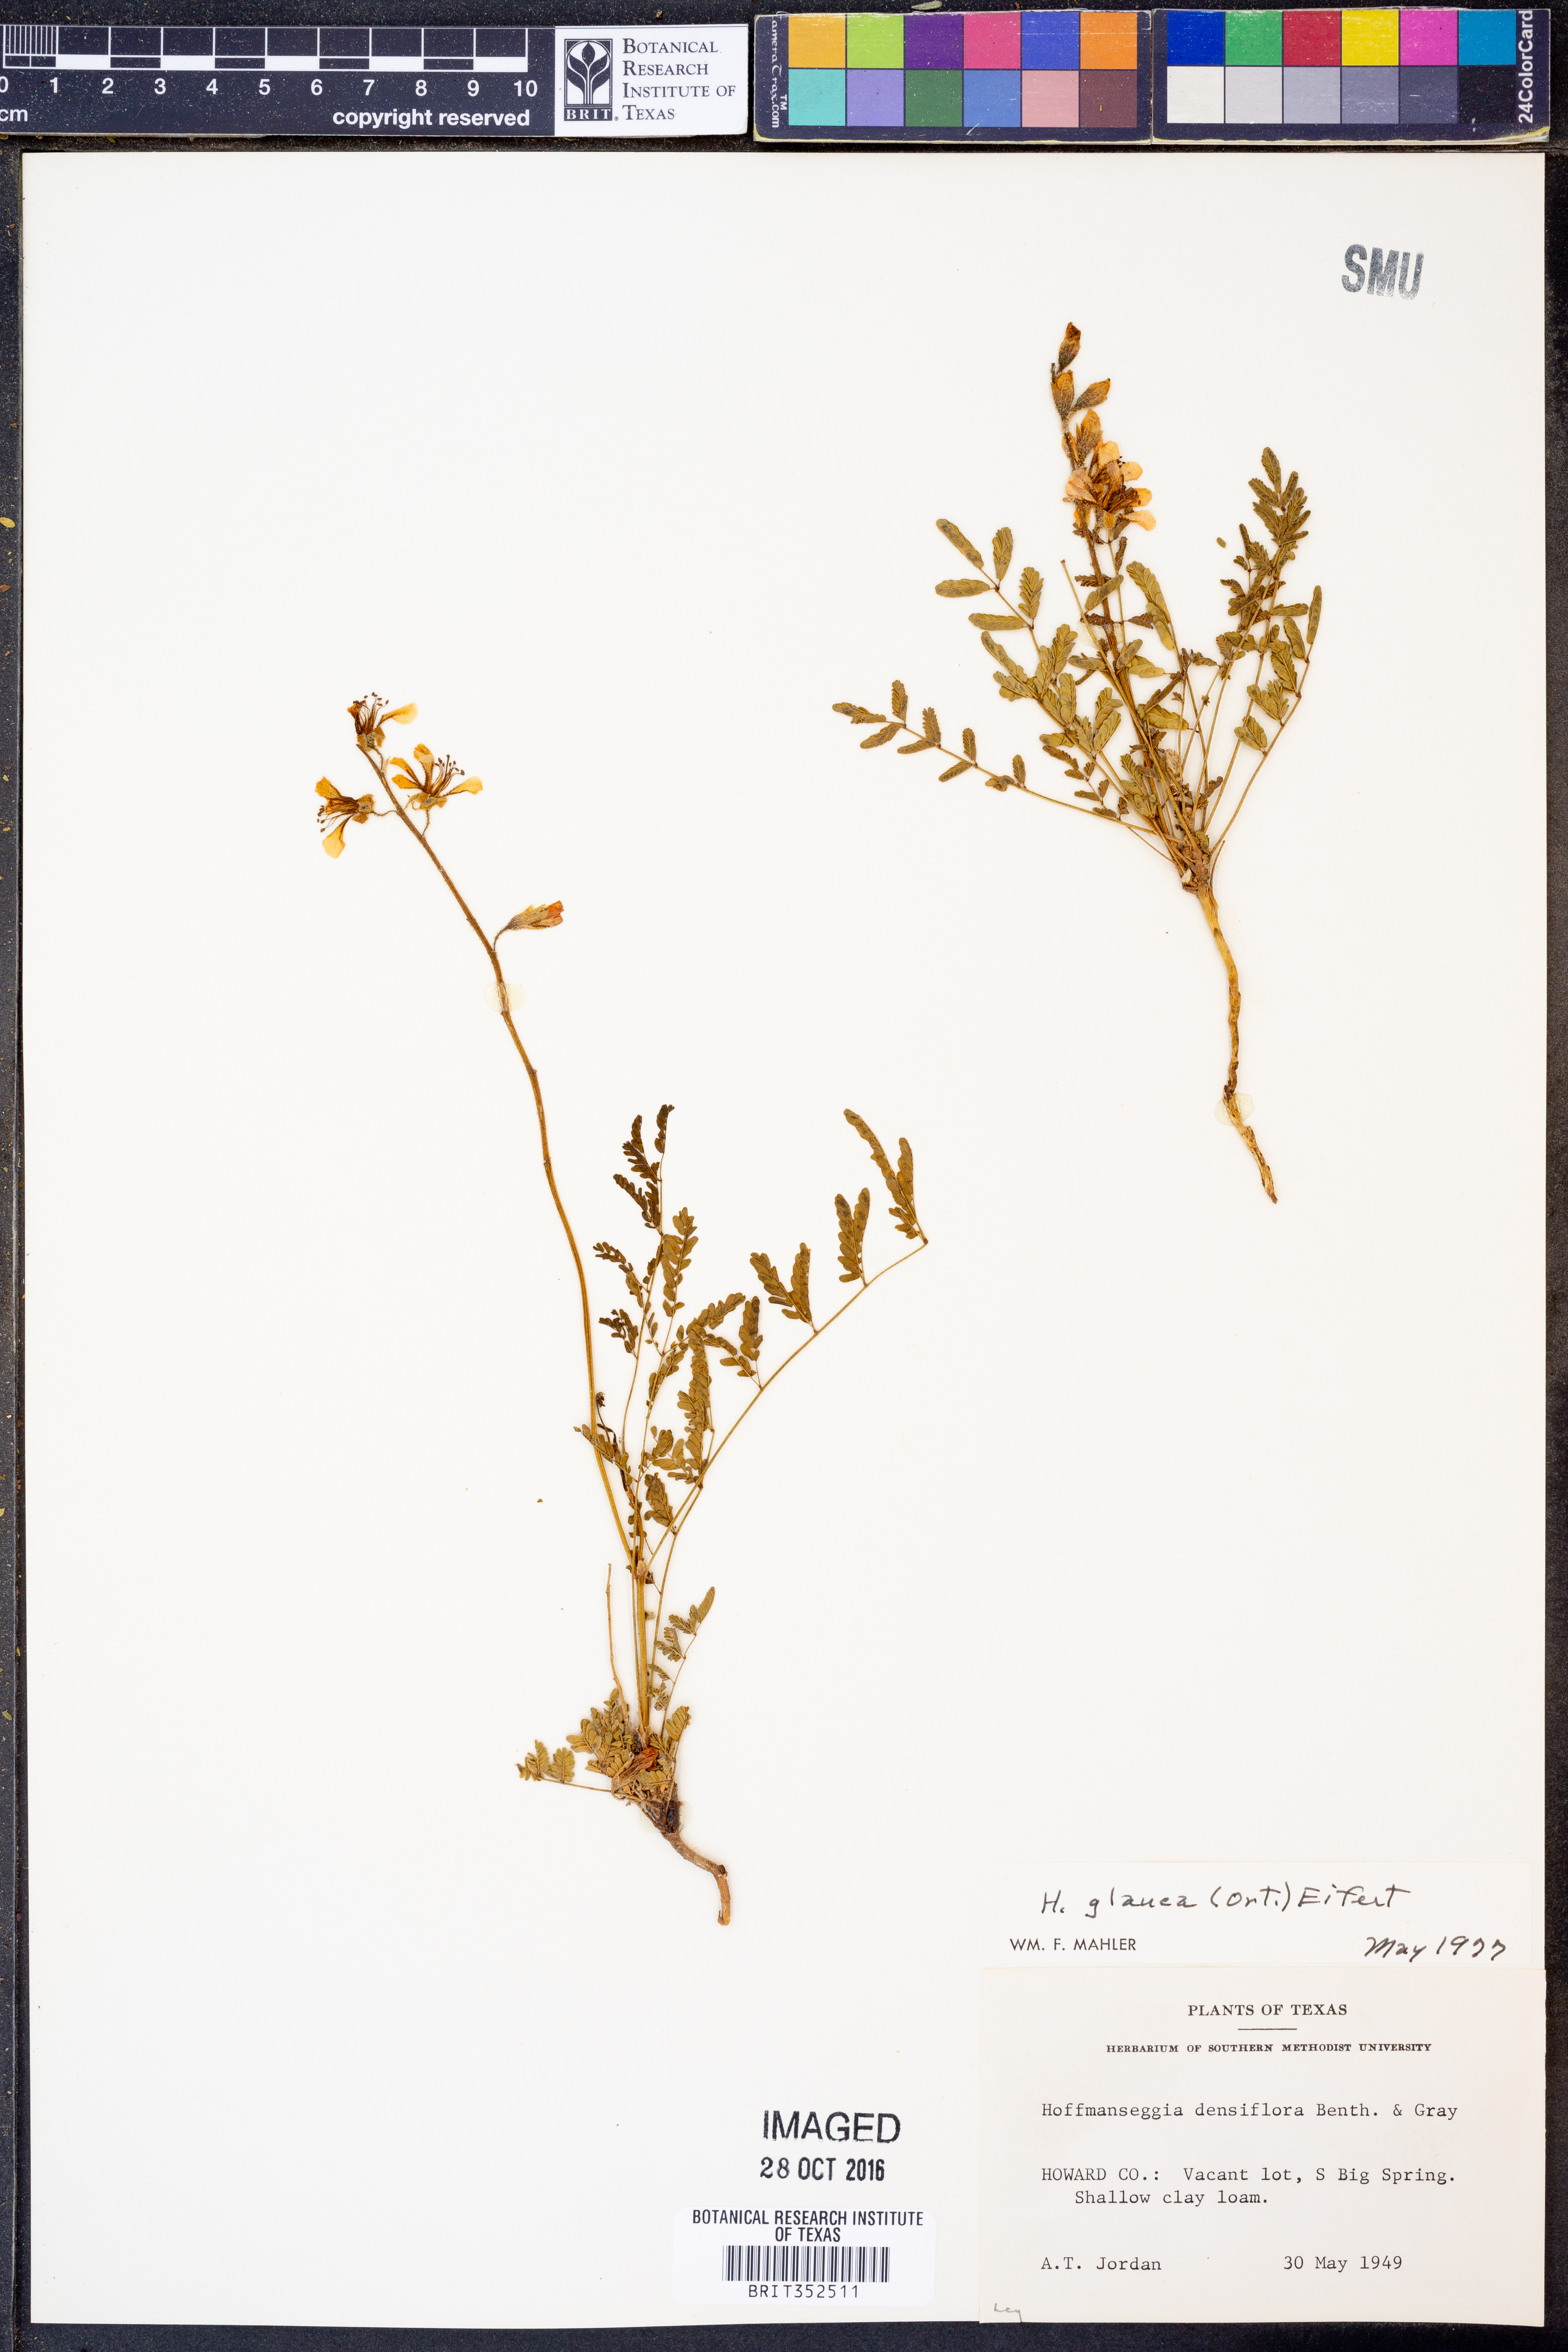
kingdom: Plantae
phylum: Tracheophyta
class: Magnoliopsida
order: Fabales
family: Fabaceae
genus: Hoffmannseggia
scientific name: Hoffmannseggia glauca
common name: Pignut
